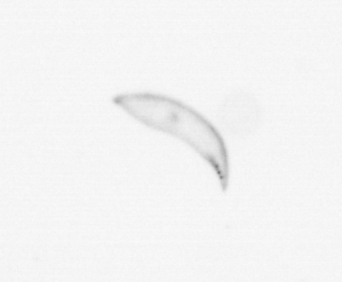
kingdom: Chromista
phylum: Ochrophyta
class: Bacillariophyceae
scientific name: Bacillariophyceae
